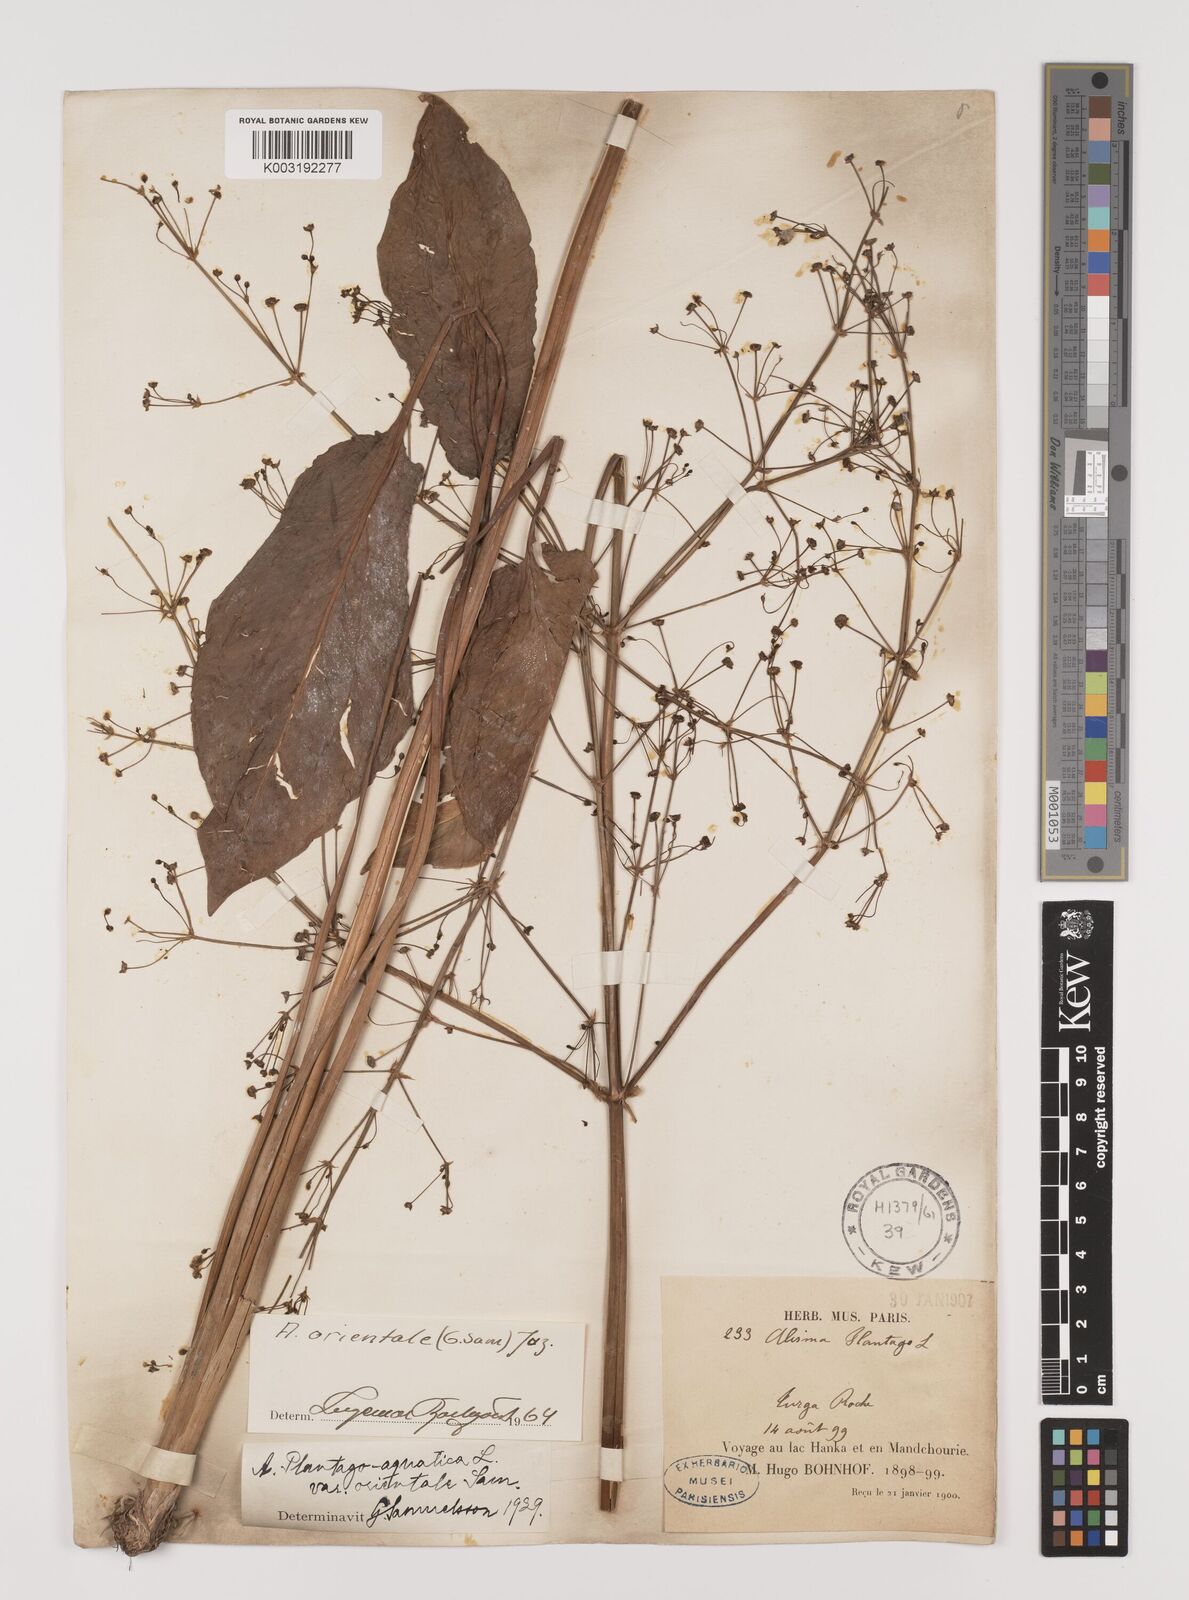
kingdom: Plantae
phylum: Tracheophyta
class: Liliopsida
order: Alismatales
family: Alismataceae
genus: Alisma
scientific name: Alisma plantago-aquatica
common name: Water-plantain
